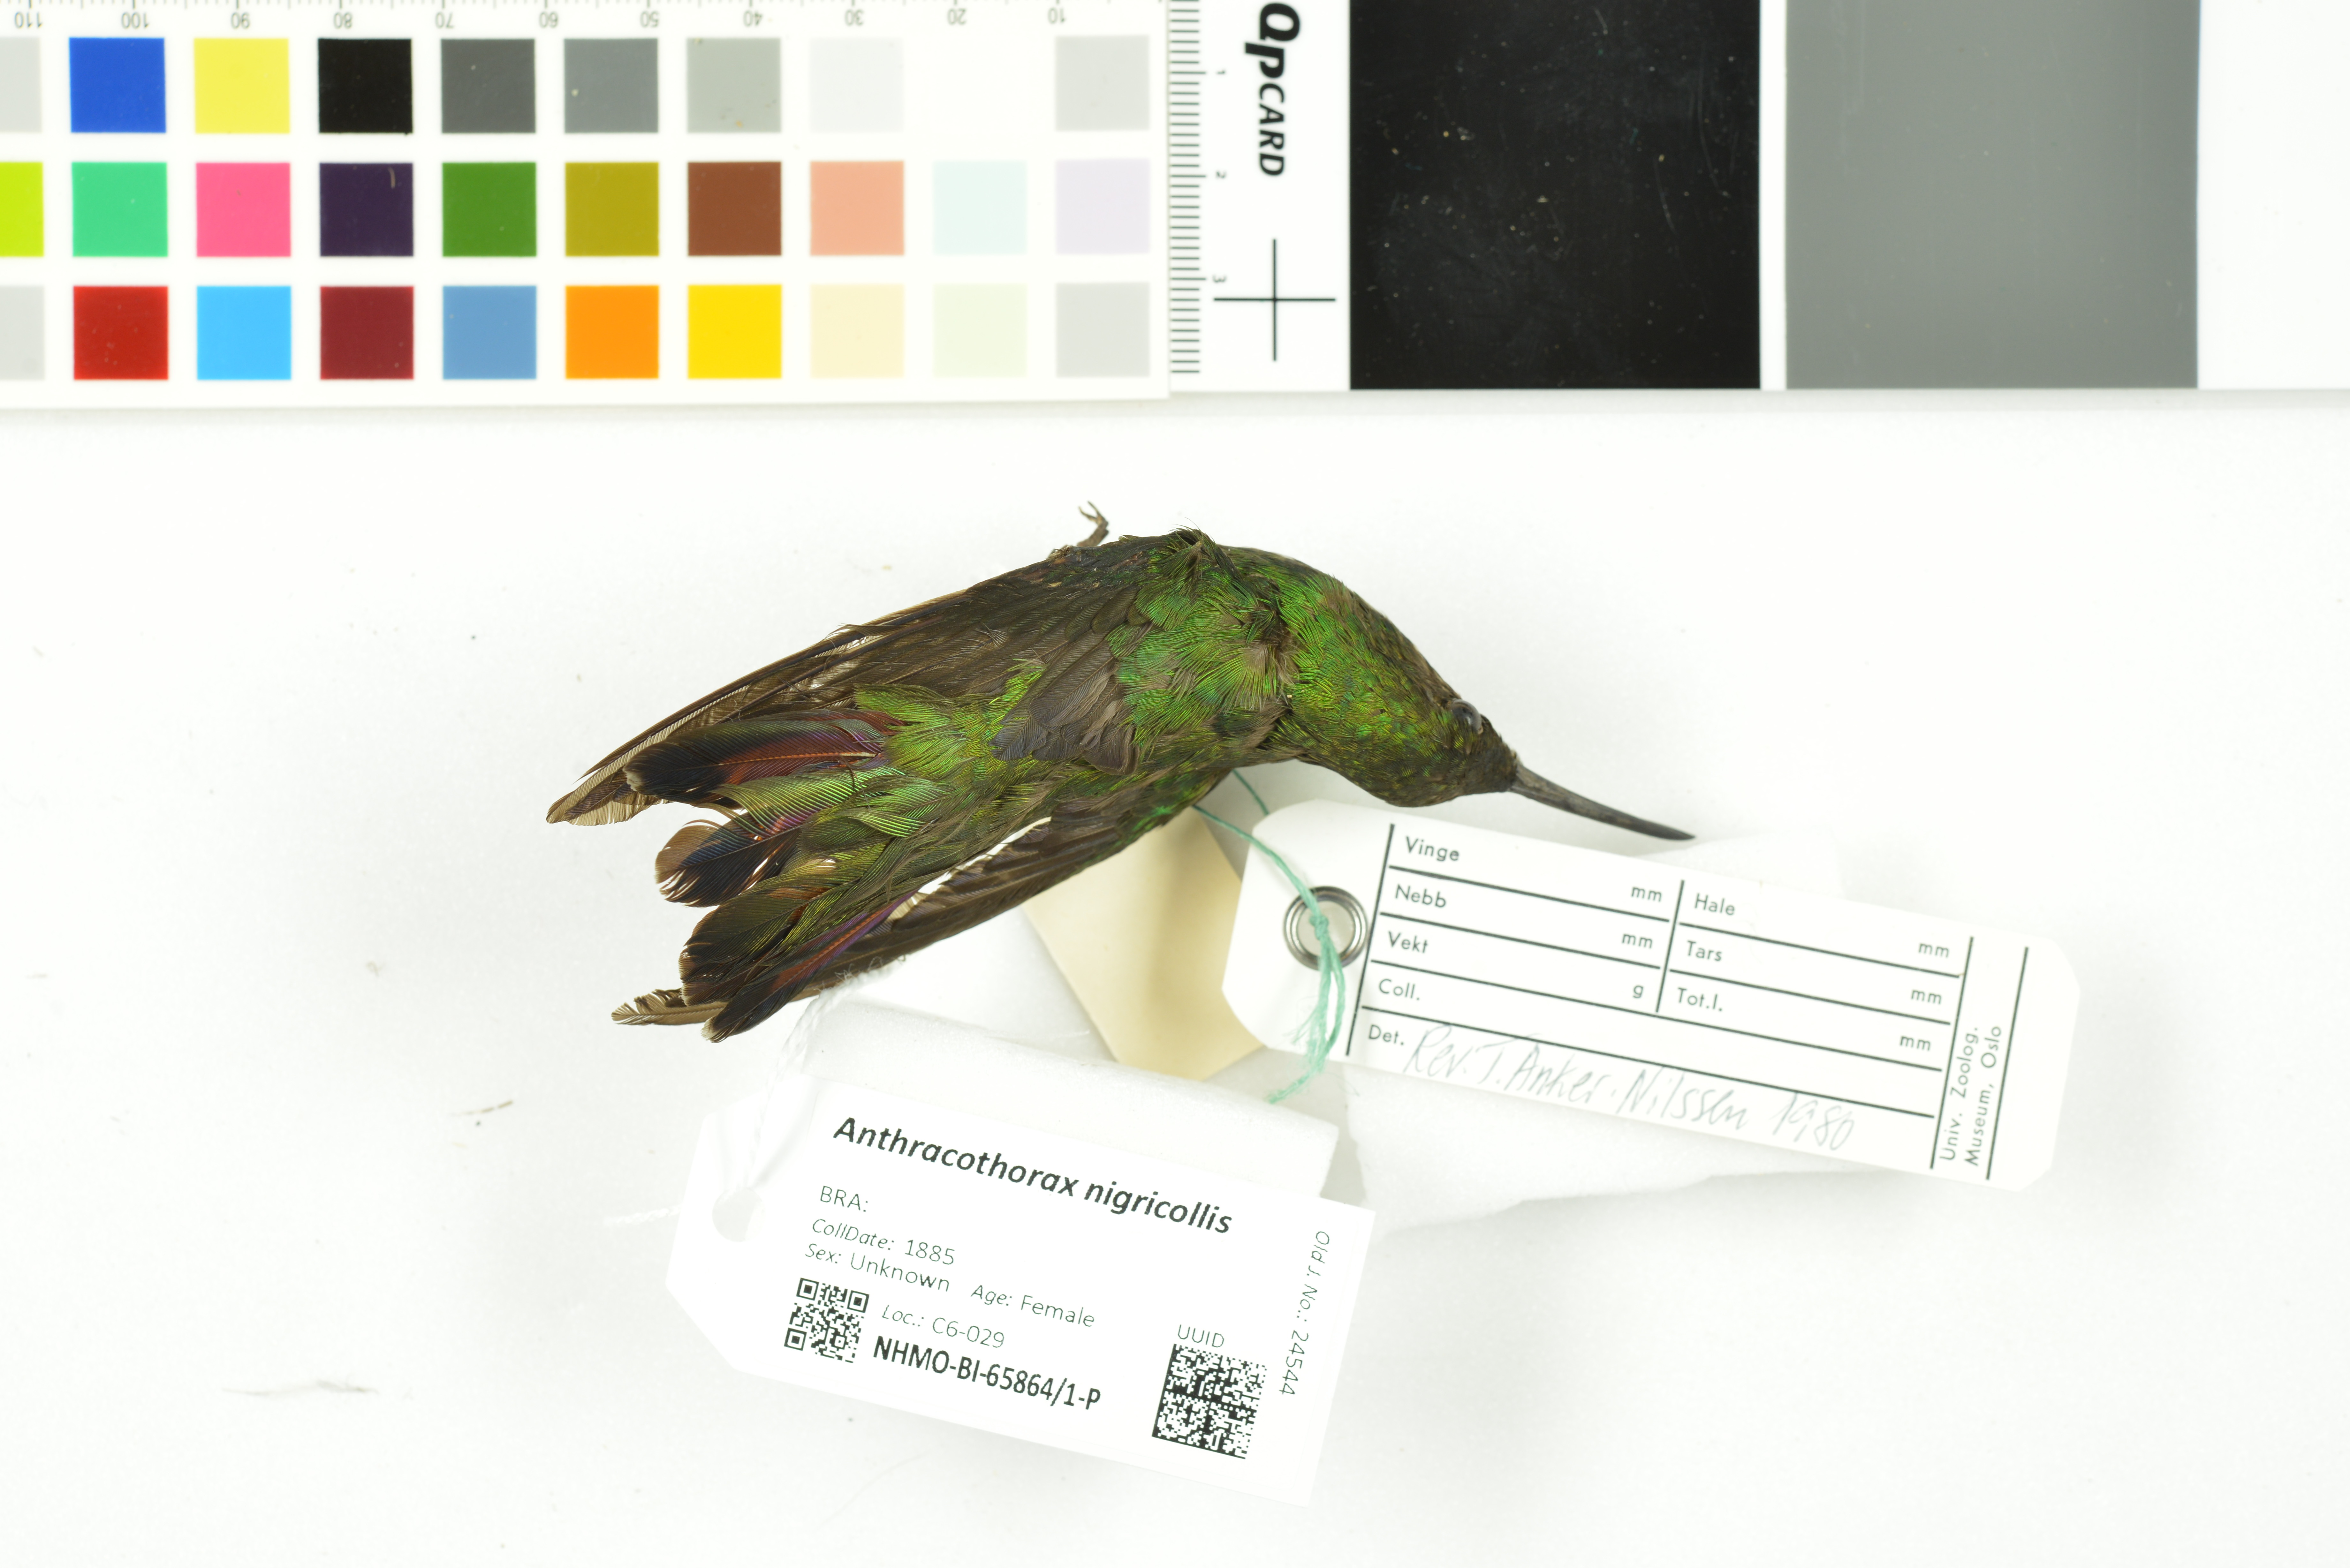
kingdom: Animalia
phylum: Chordata
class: Aves
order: Apodiformes
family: Trochilidae
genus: Anthracothorax
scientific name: Anthracothorax nigricollis
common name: Black-throated mango
